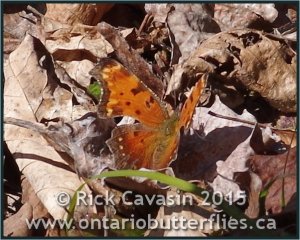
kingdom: Animalia
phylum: Arthropoda
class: Insecta
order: Lepidoptera
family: Nymphalidae
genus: Polygonia
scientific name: Polygonia progne
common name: Gray Comma
